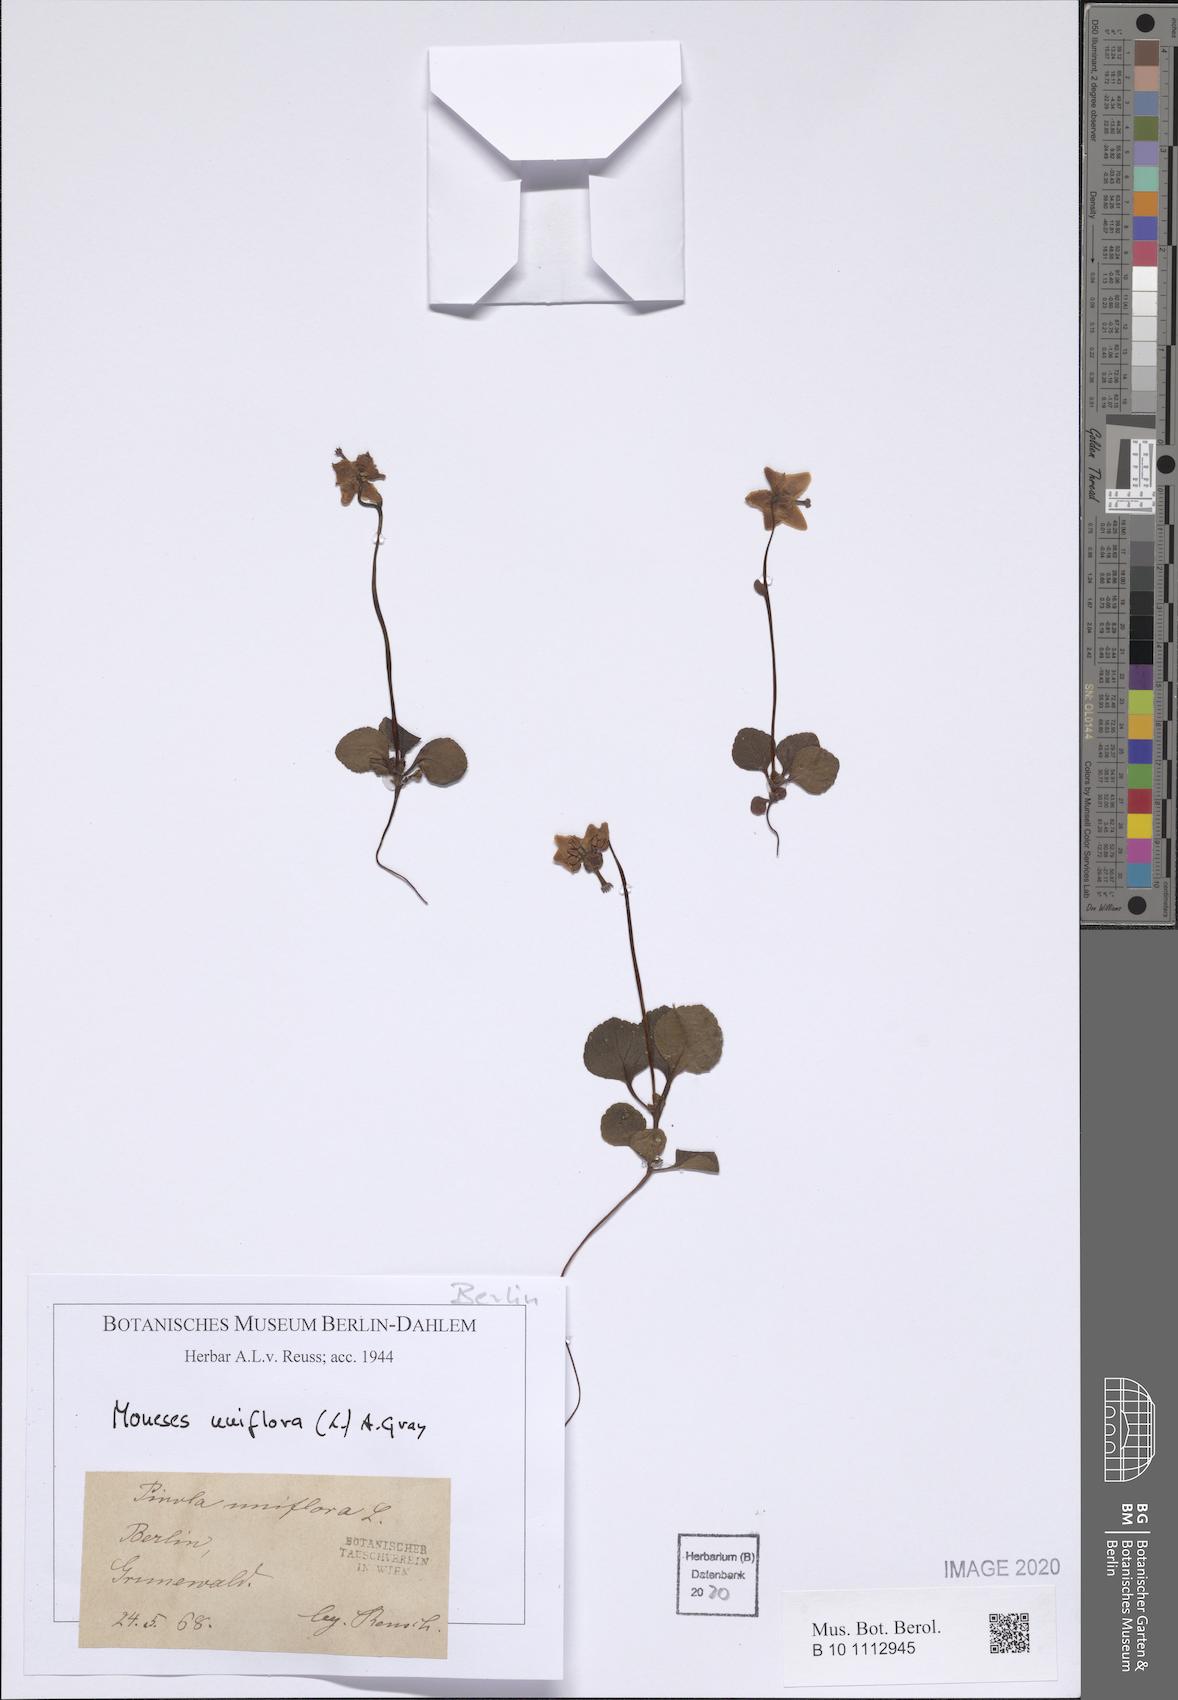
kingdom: Plantae
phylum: Tracheophyta
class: Magnoliopsida
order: Ericales
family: Ericaceae
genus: Moneses
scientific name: Moneses uniflora
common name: One-flowered wintergreen
